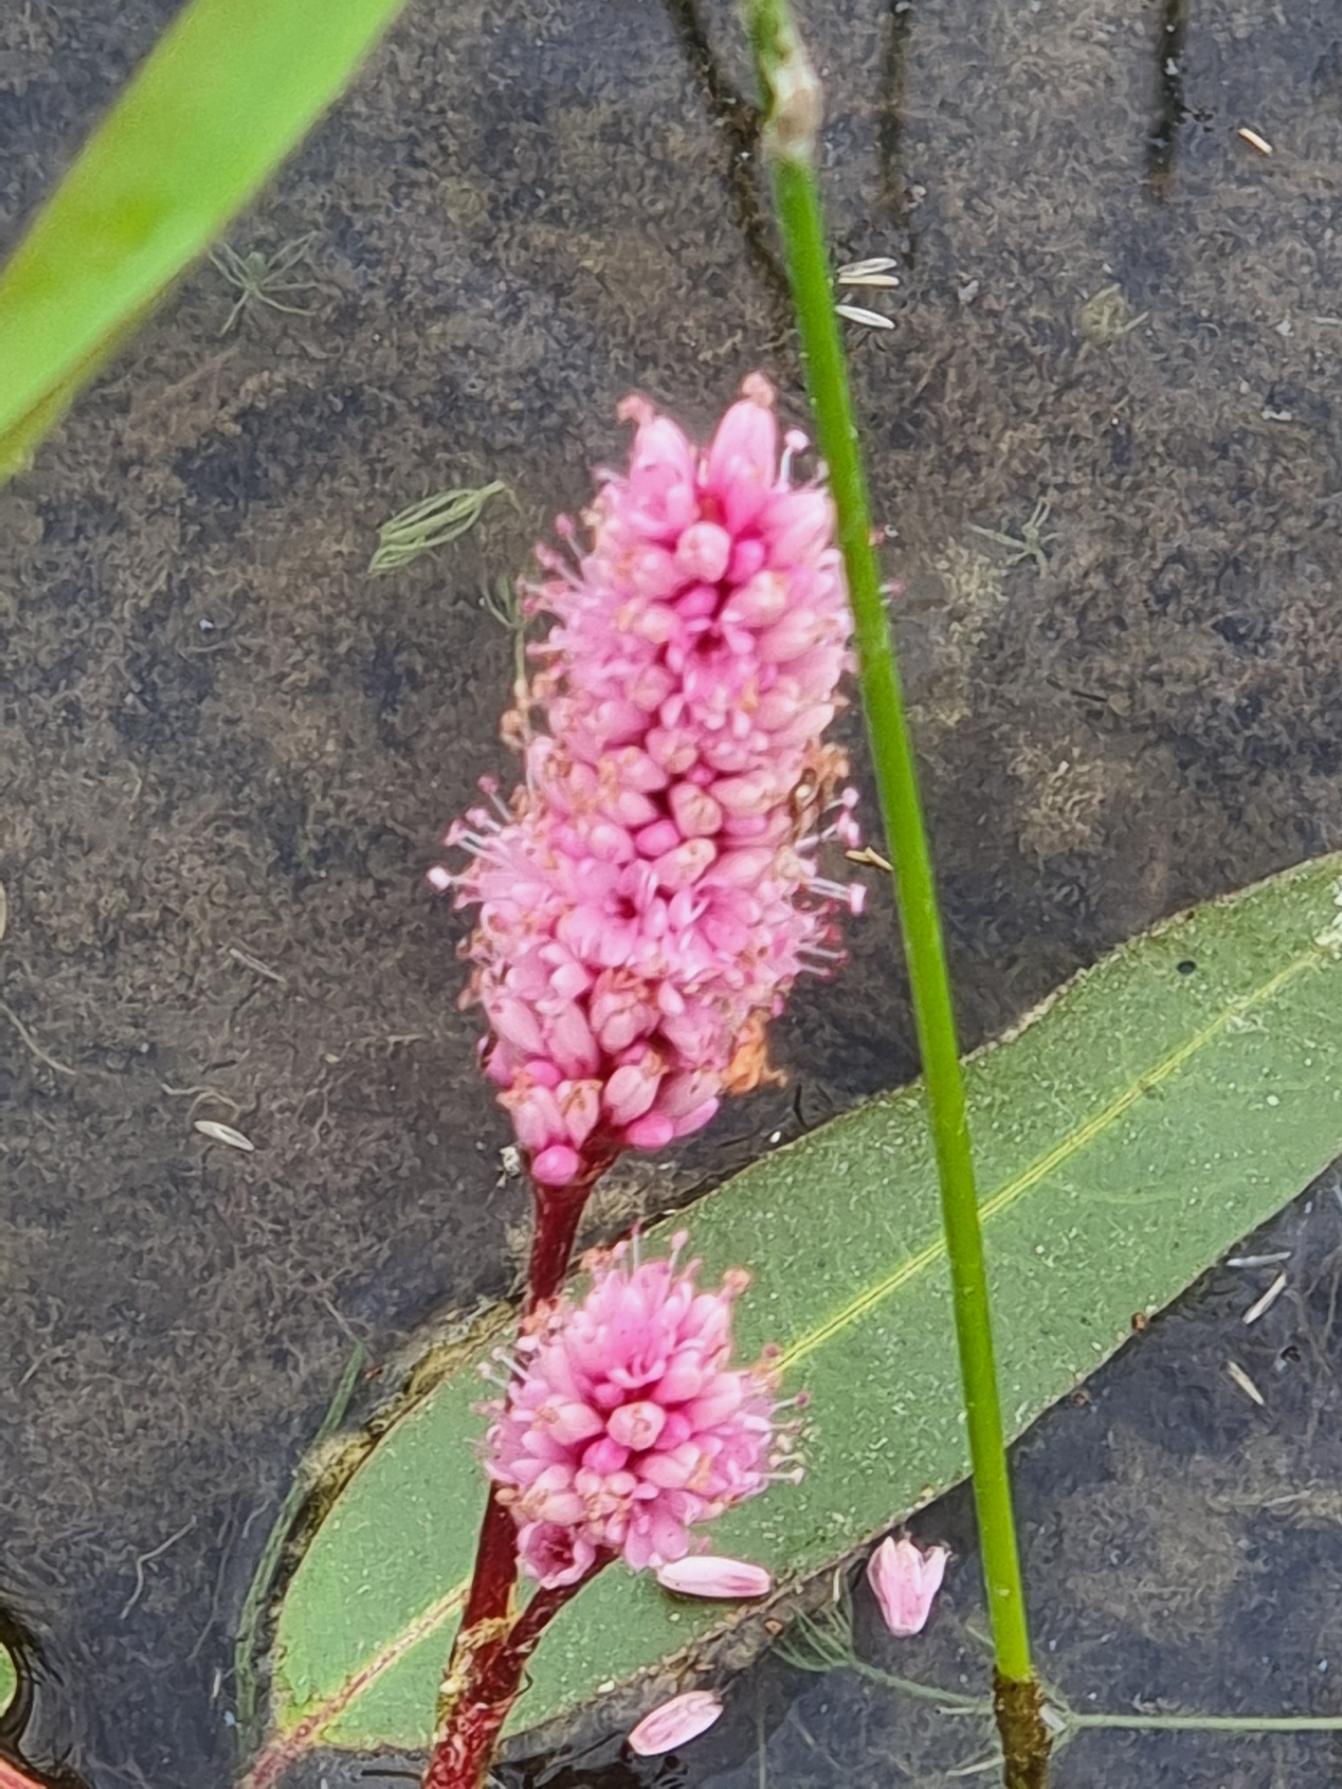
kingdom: Plantae
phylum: Tracheophyta
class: Magnoliopsida
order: Caryophyllales
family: Polygonaceae
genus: Persicaria
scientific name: Persicaria amphibia
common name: Vand-pileurt
